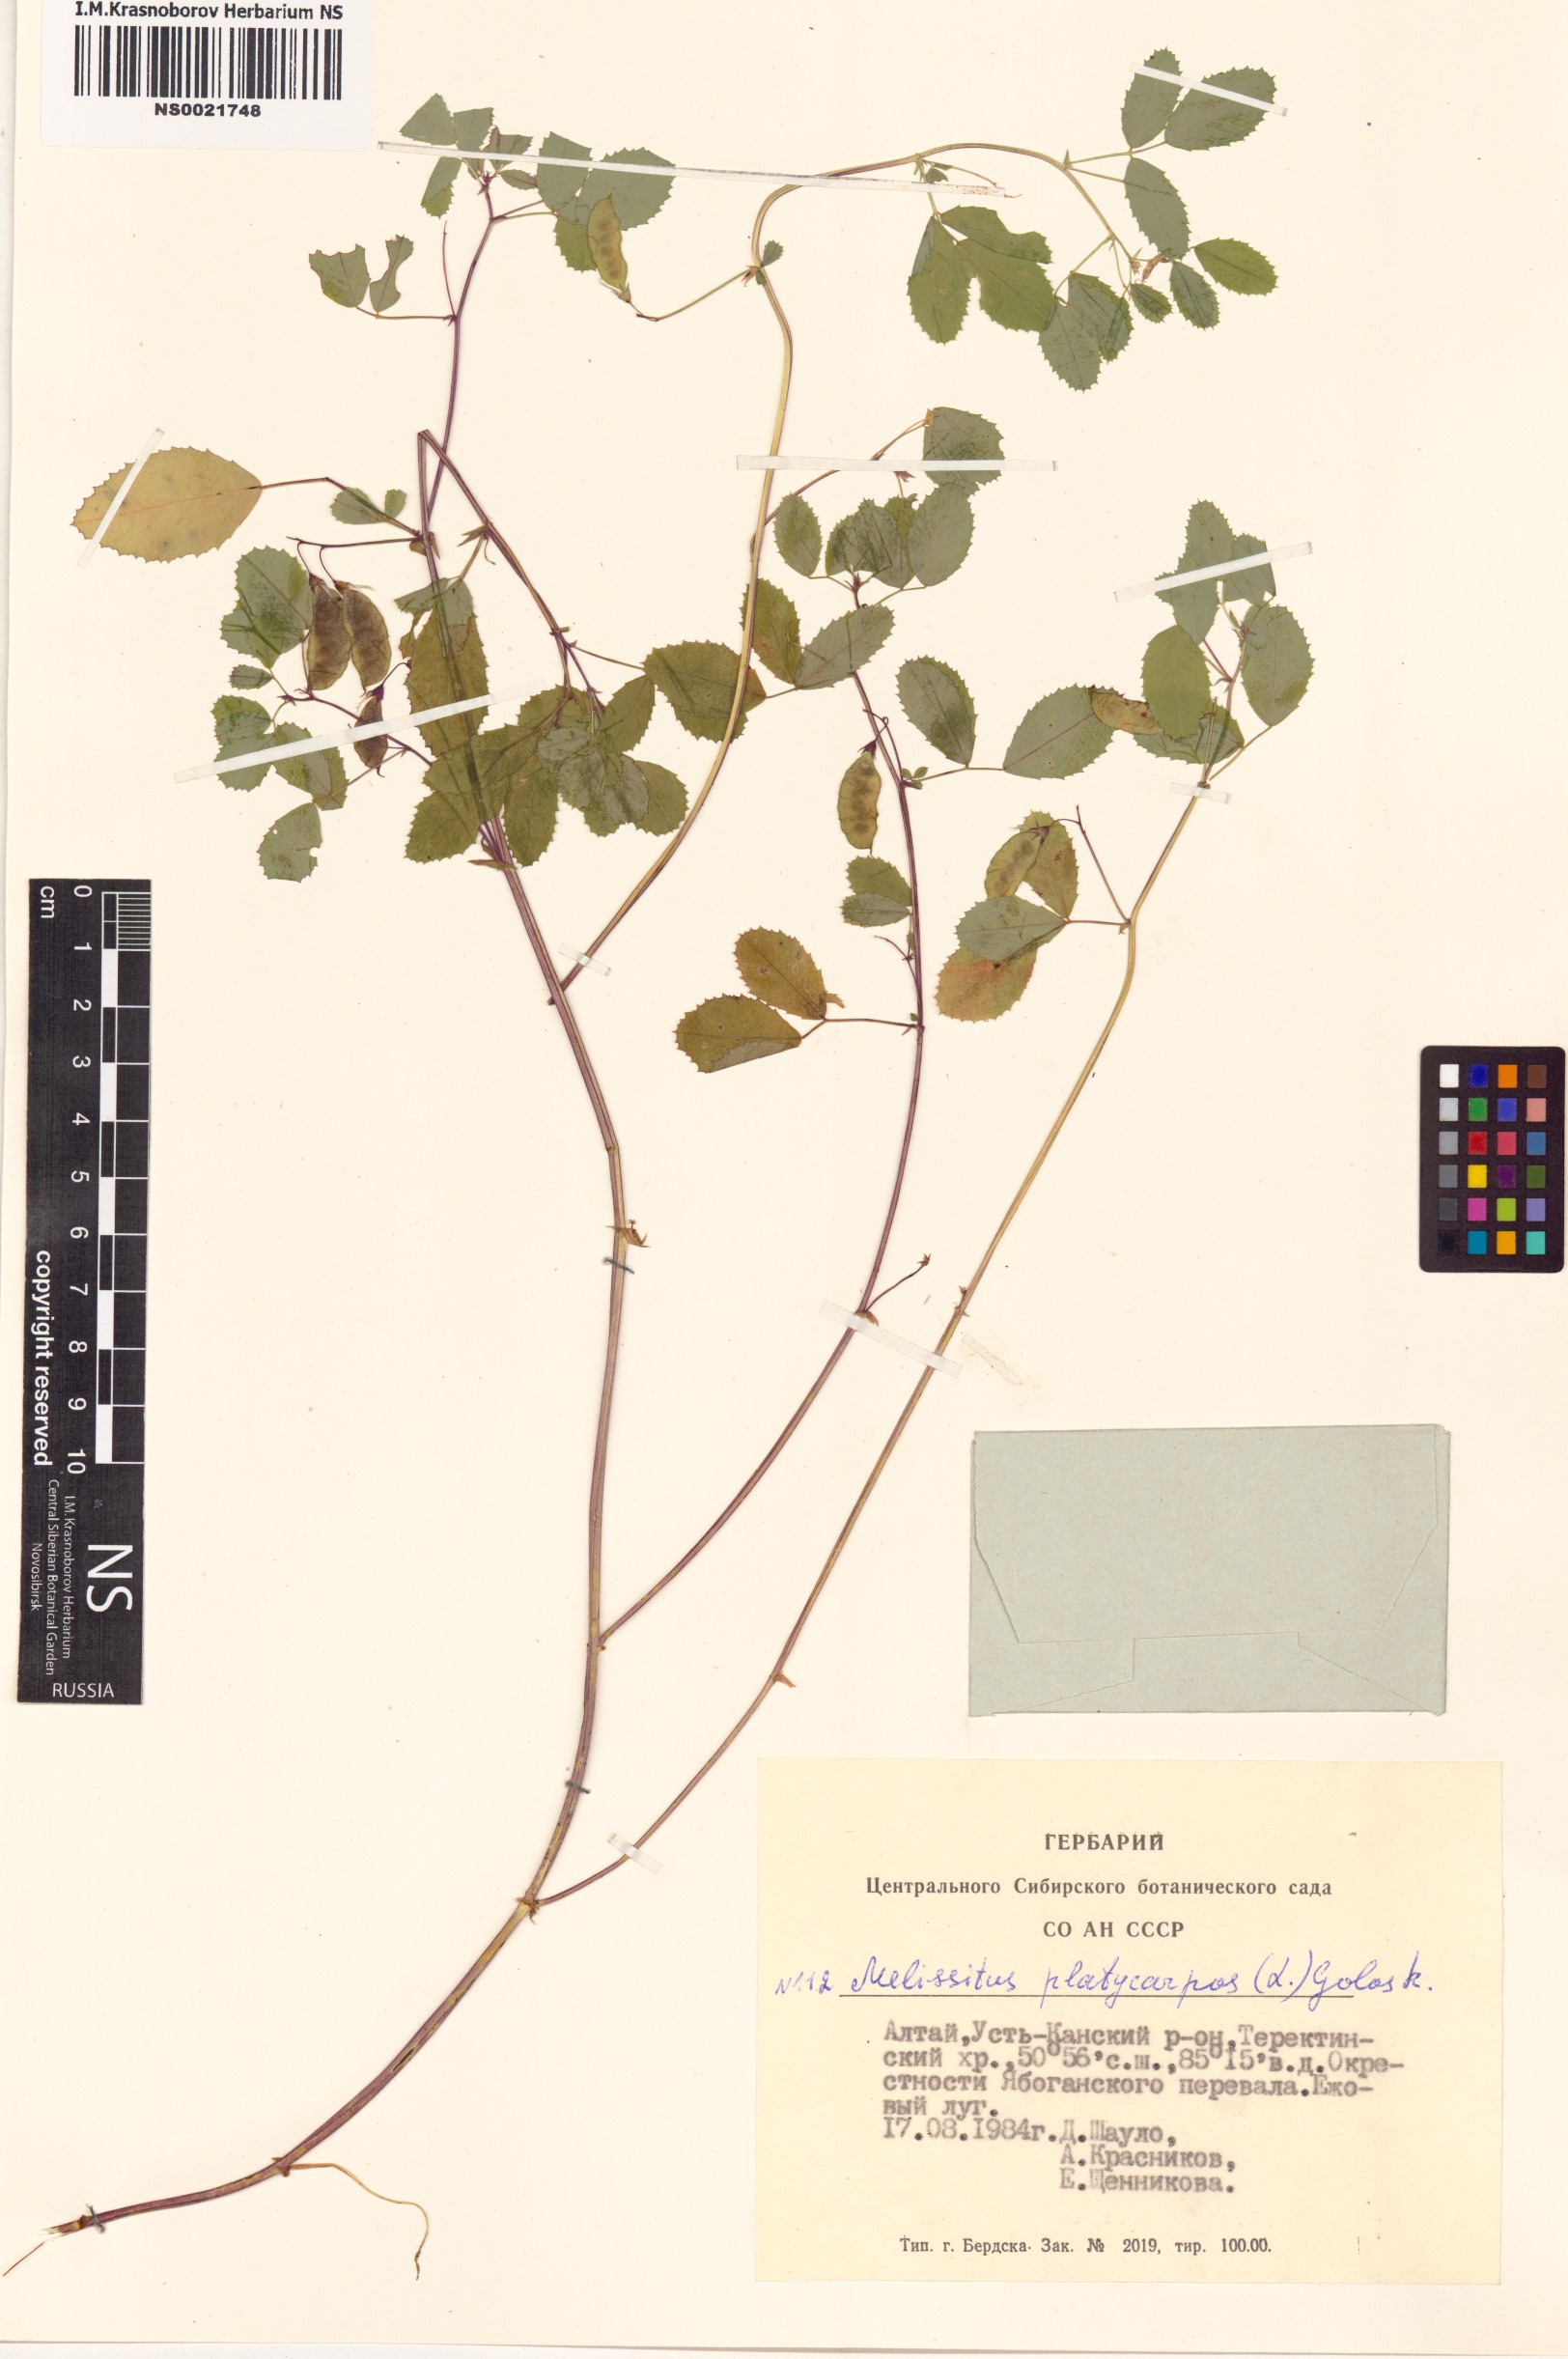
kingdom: Plantae
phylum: Tracheophyta
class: Magnoliopsida
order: Fabales
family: Fabaceae
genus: Medicago
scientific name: Medicago platycarpos
